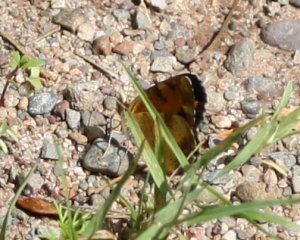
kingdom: Animalia
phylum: Arthropoda
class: Insecta
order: Lepidoptera
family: Nymphalidae
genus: Phyciodes
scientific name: Phyciodes tharos
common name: Northern Crescent
